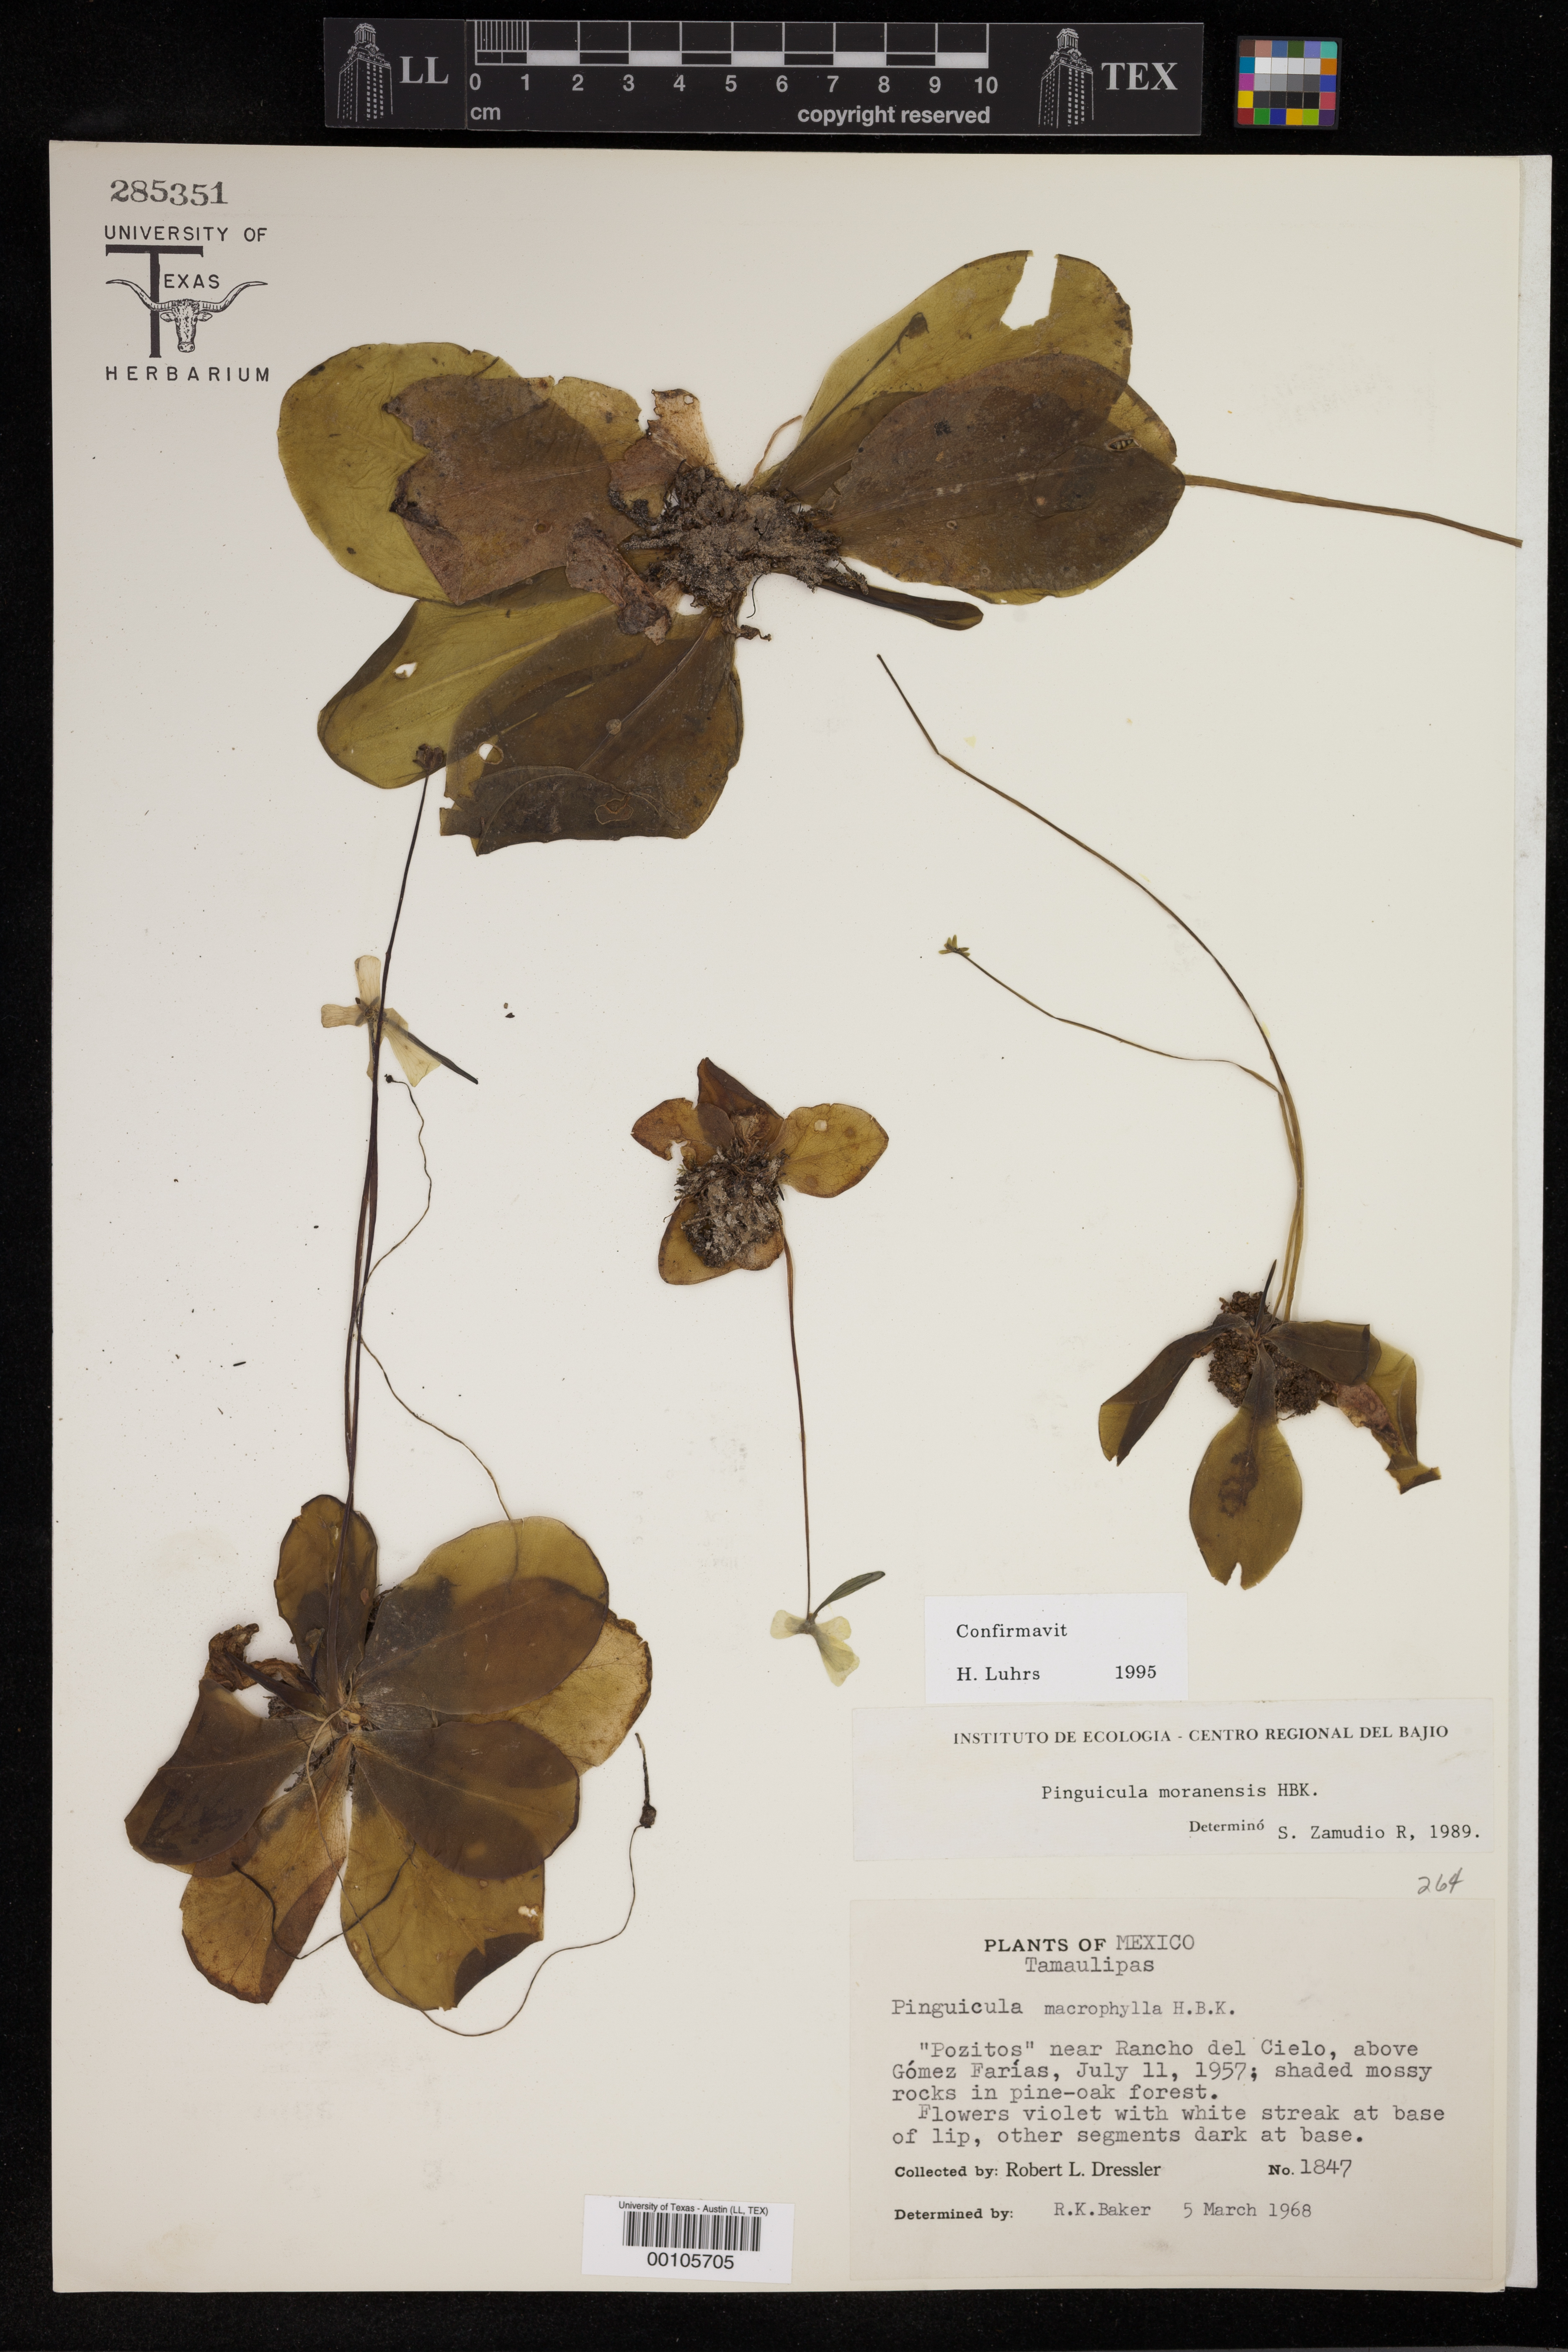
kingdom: Plantae
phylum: Tracheophyta
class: Magnoliopsida
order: Lamiales
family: Lentibulariaceae
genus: Pinguicula
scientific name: Pinguicula moranensis
